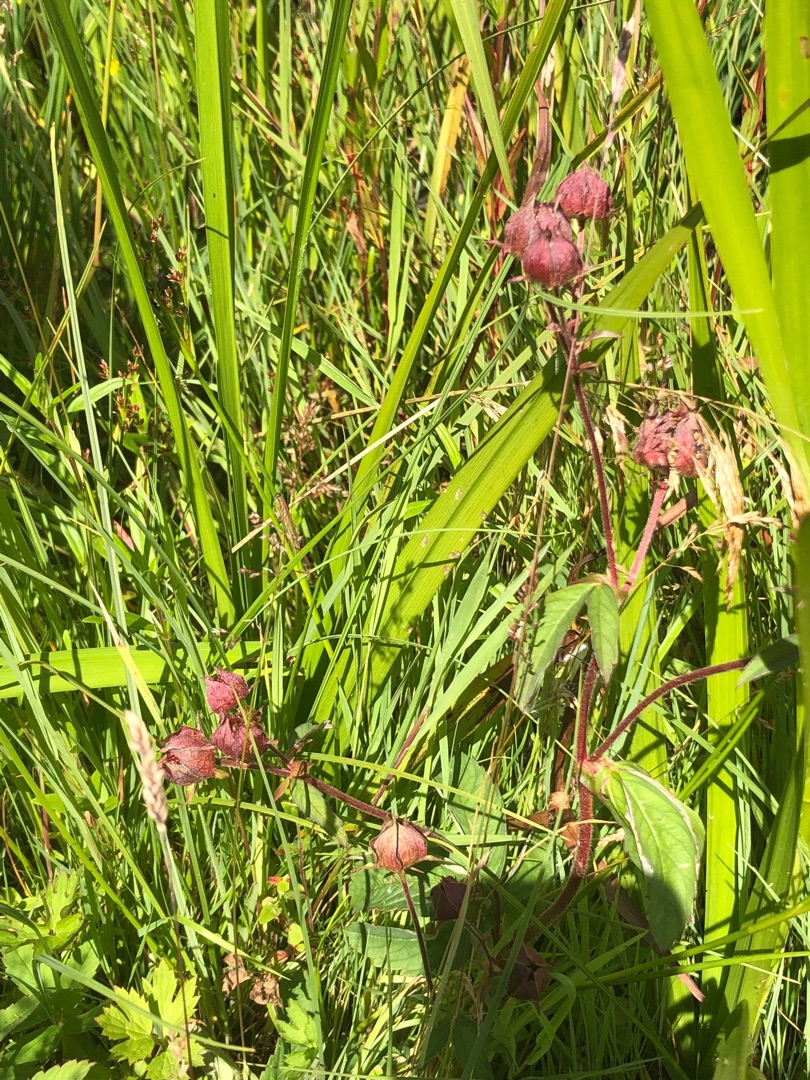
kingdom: Plantae
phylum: Tracheophyta
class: Magnoliopsida
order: Rosales
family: Rosaceae
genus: Comarum
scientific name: Comarum palustre
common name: Kragefod
